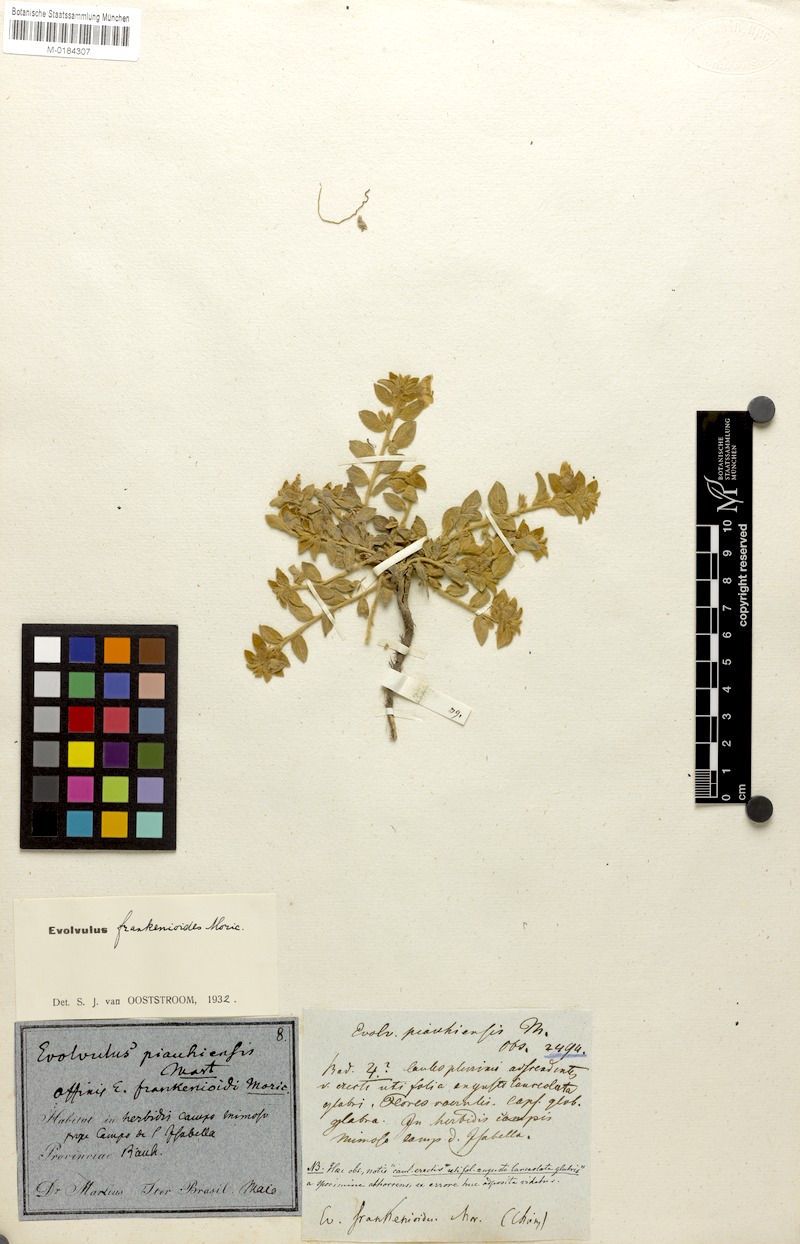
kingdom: Plantae
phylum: Tracheophyta
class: Magnoliopsida
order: Solanales
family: Convolvulaceae
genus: Evolvulus
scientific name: Evolvulus frankenioides
